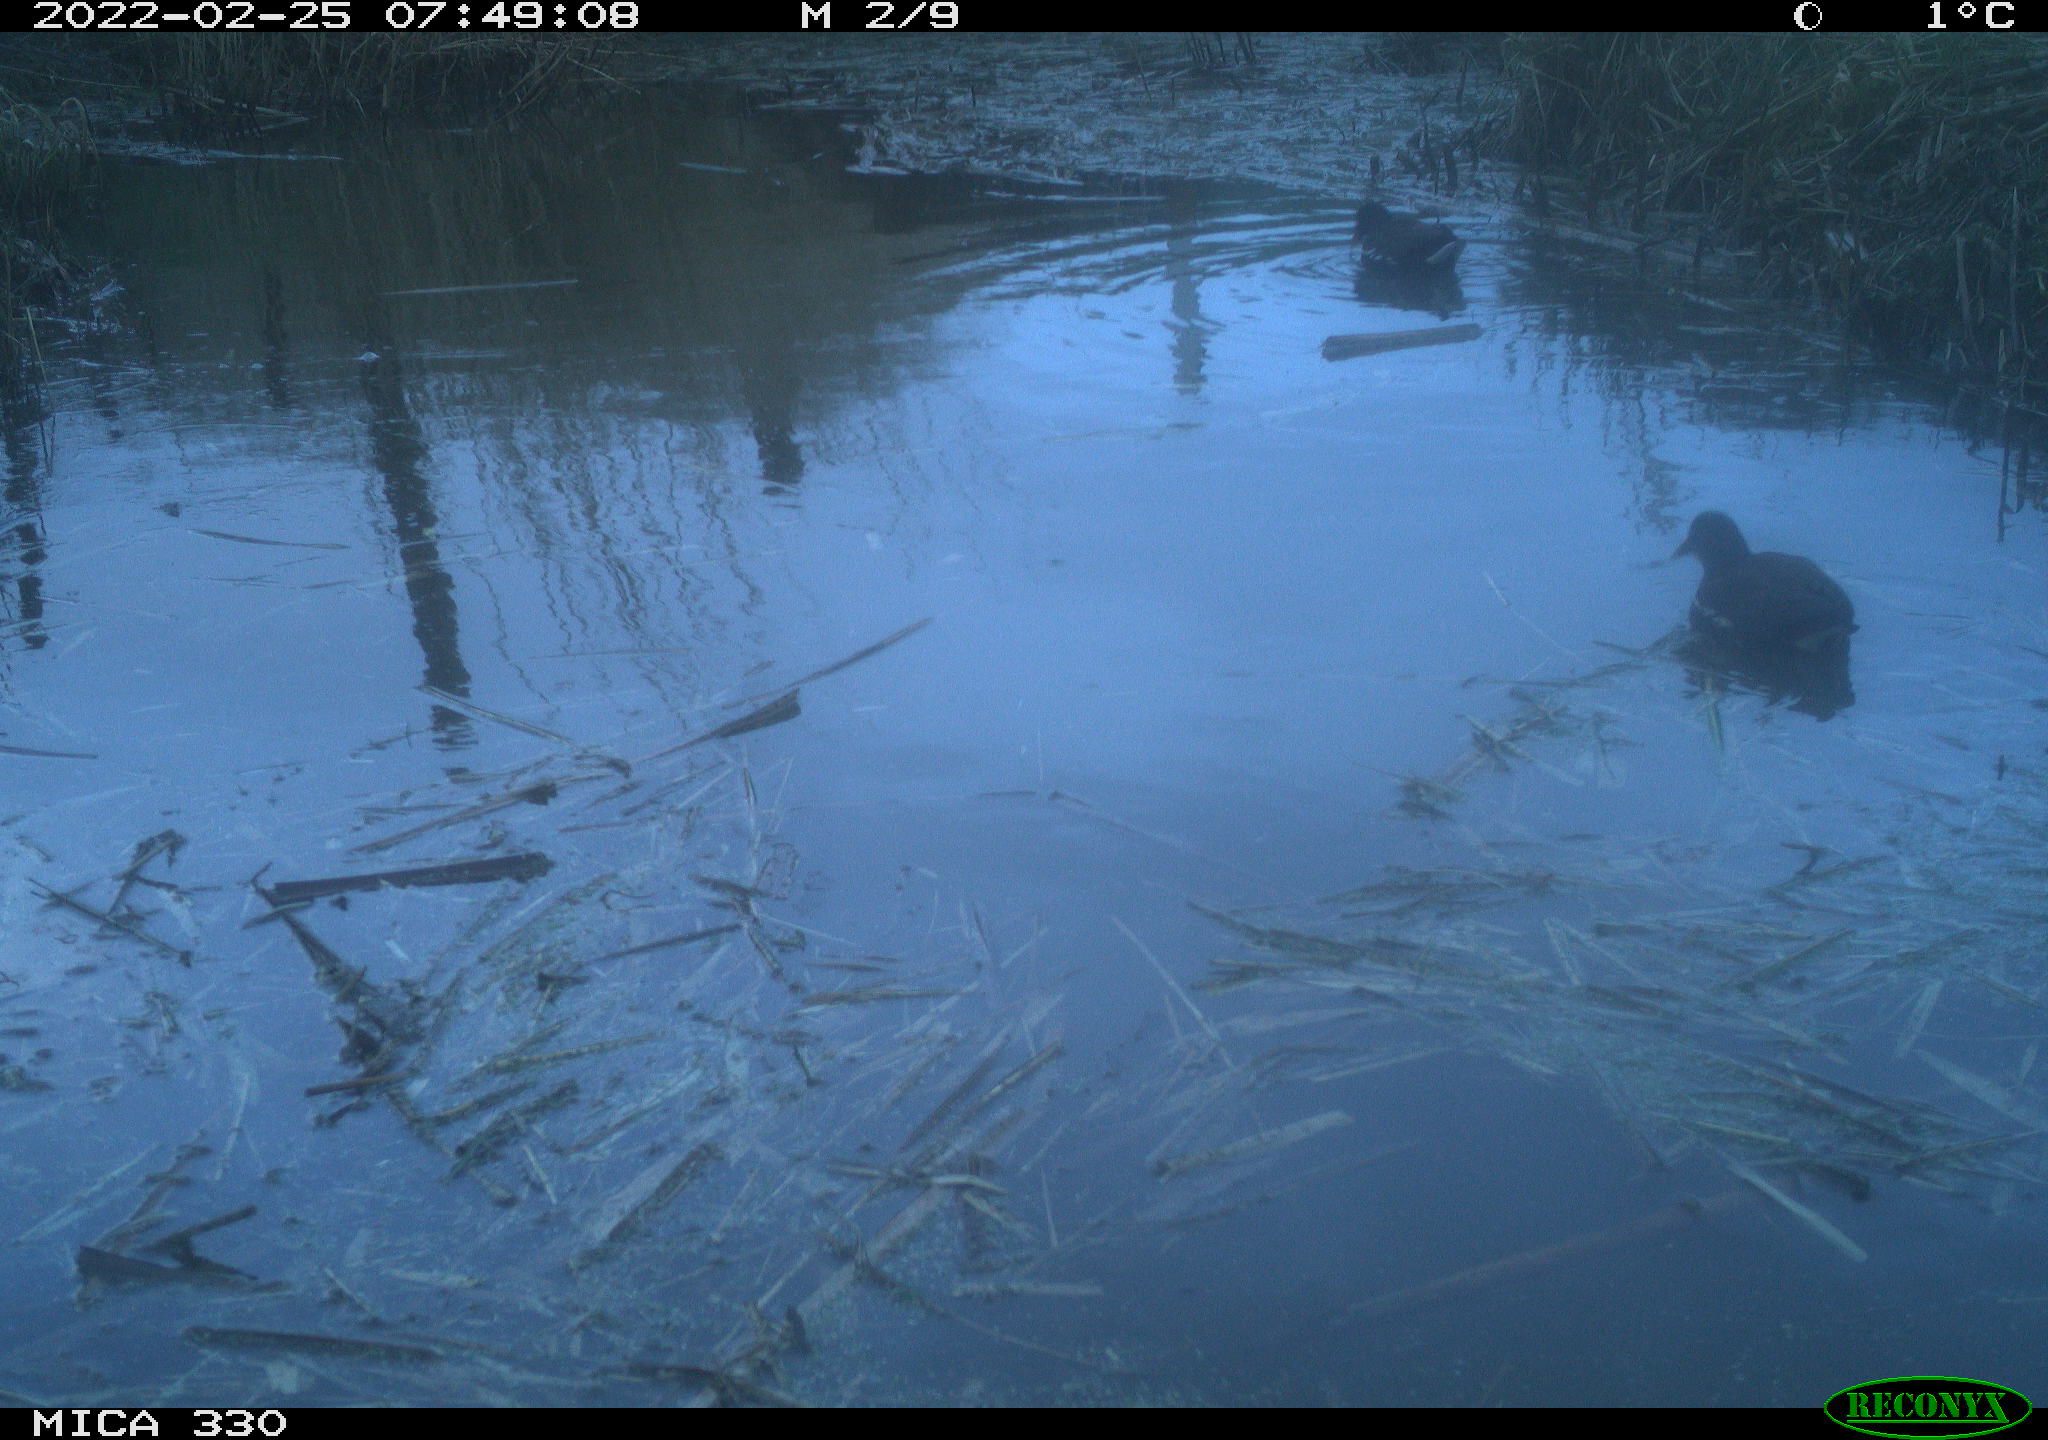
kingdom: Animalia
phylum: Chordata
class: Aves
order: Gruiformes
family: Rallidae
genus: Gallinula
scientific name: Gallinula chloropus
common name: Common moorhen
